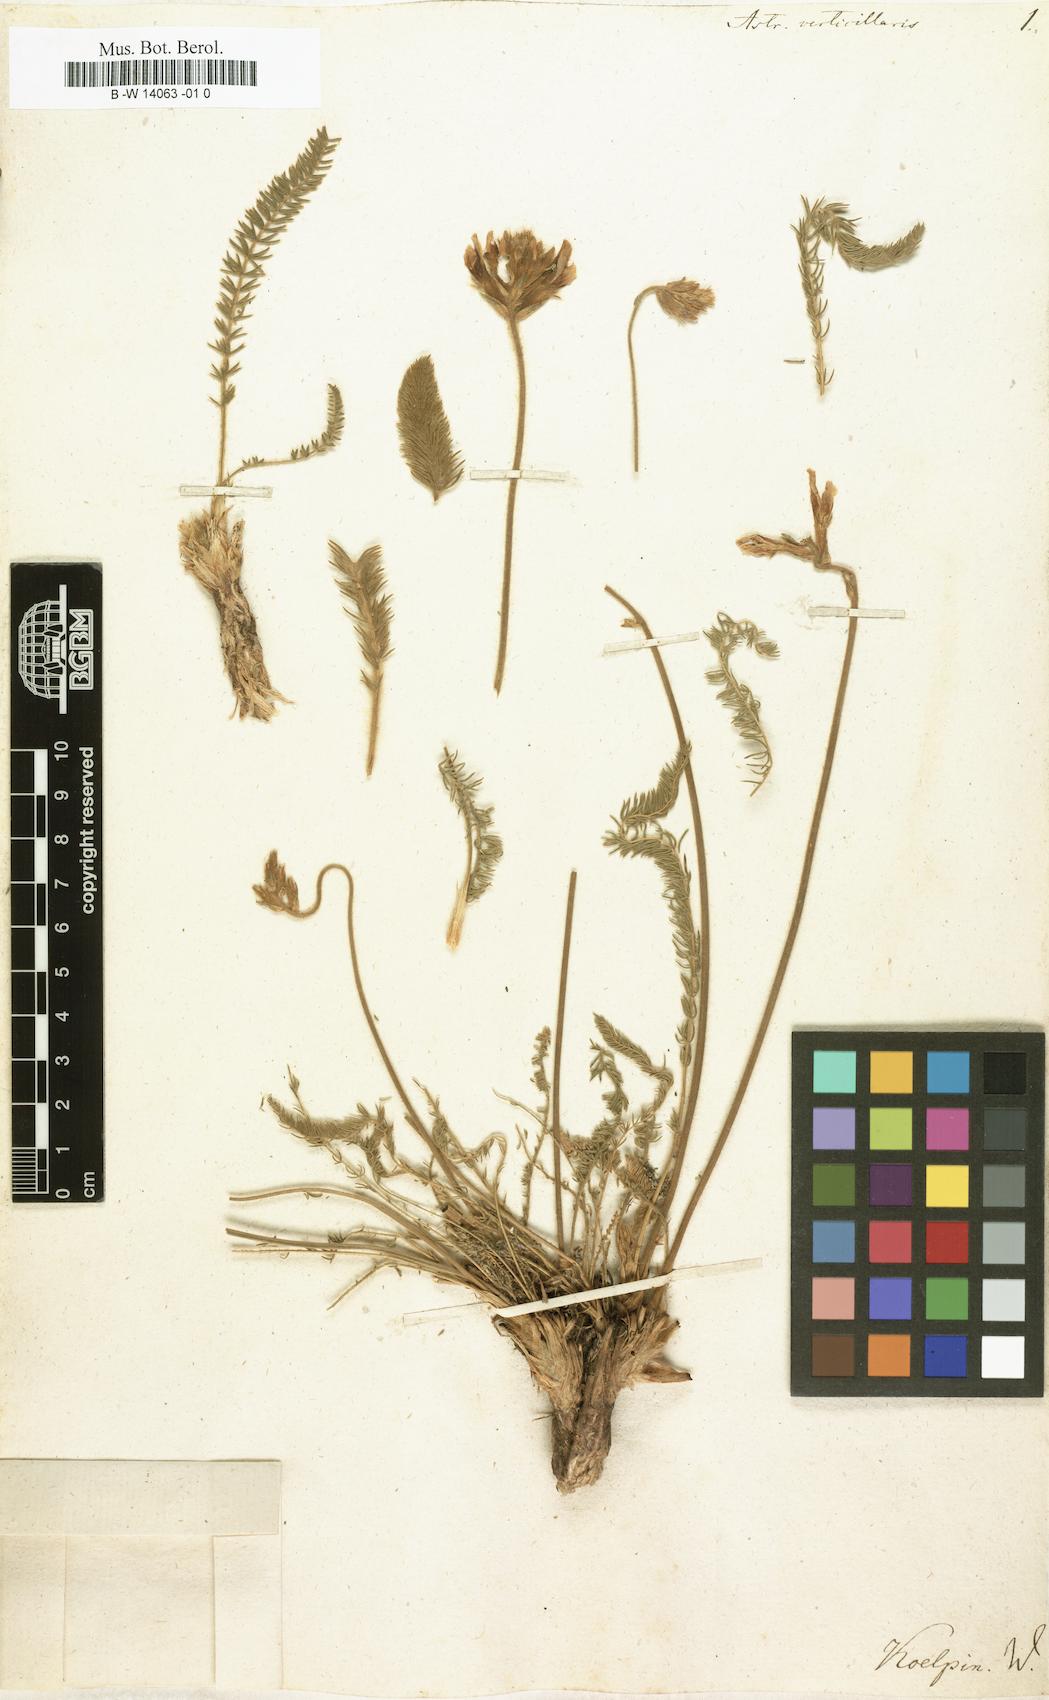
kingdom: Plantae
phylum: Tracheophyta
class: Magnoliopsida
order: Fabales
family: Fabaceae
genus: Astragalus
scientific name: Astragalus neubauerianus
